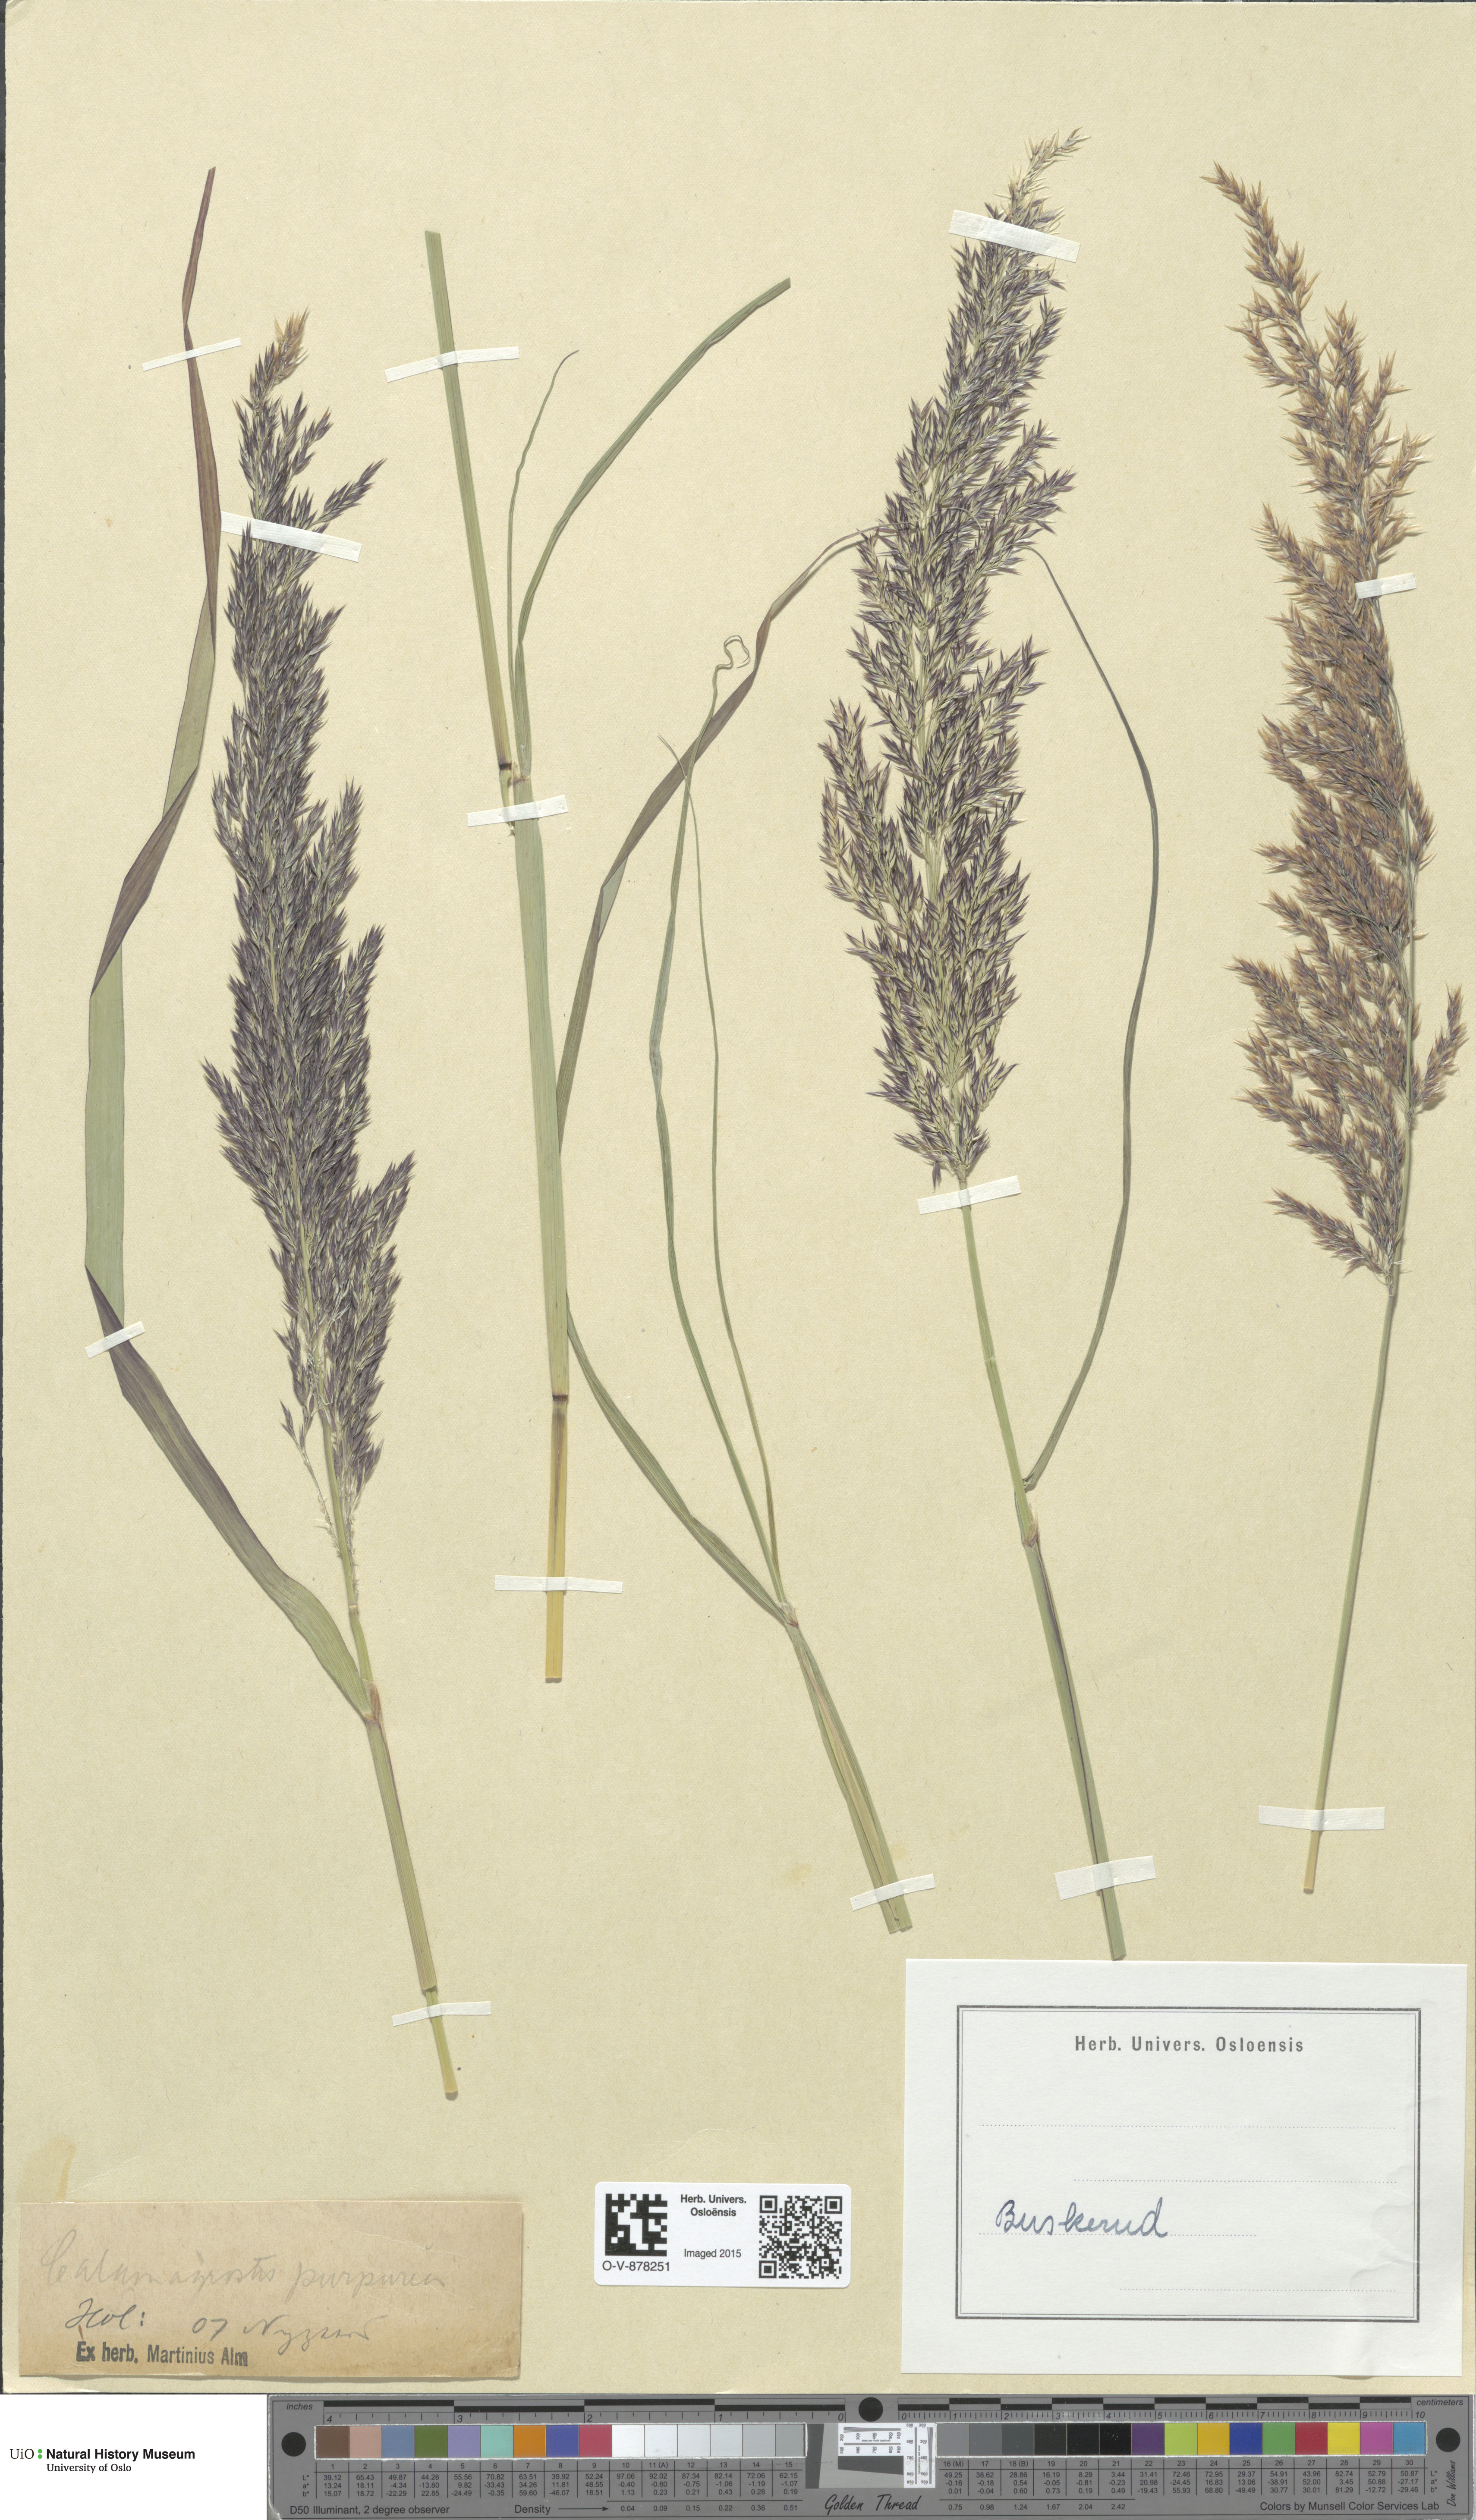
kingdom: Plantae
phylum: Tracheophyta
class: Liliopsida
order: Poales
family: Poaceae
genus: Calamagrostis
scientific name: Calamagrostis purpurea
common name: Scandinavian small-reed
